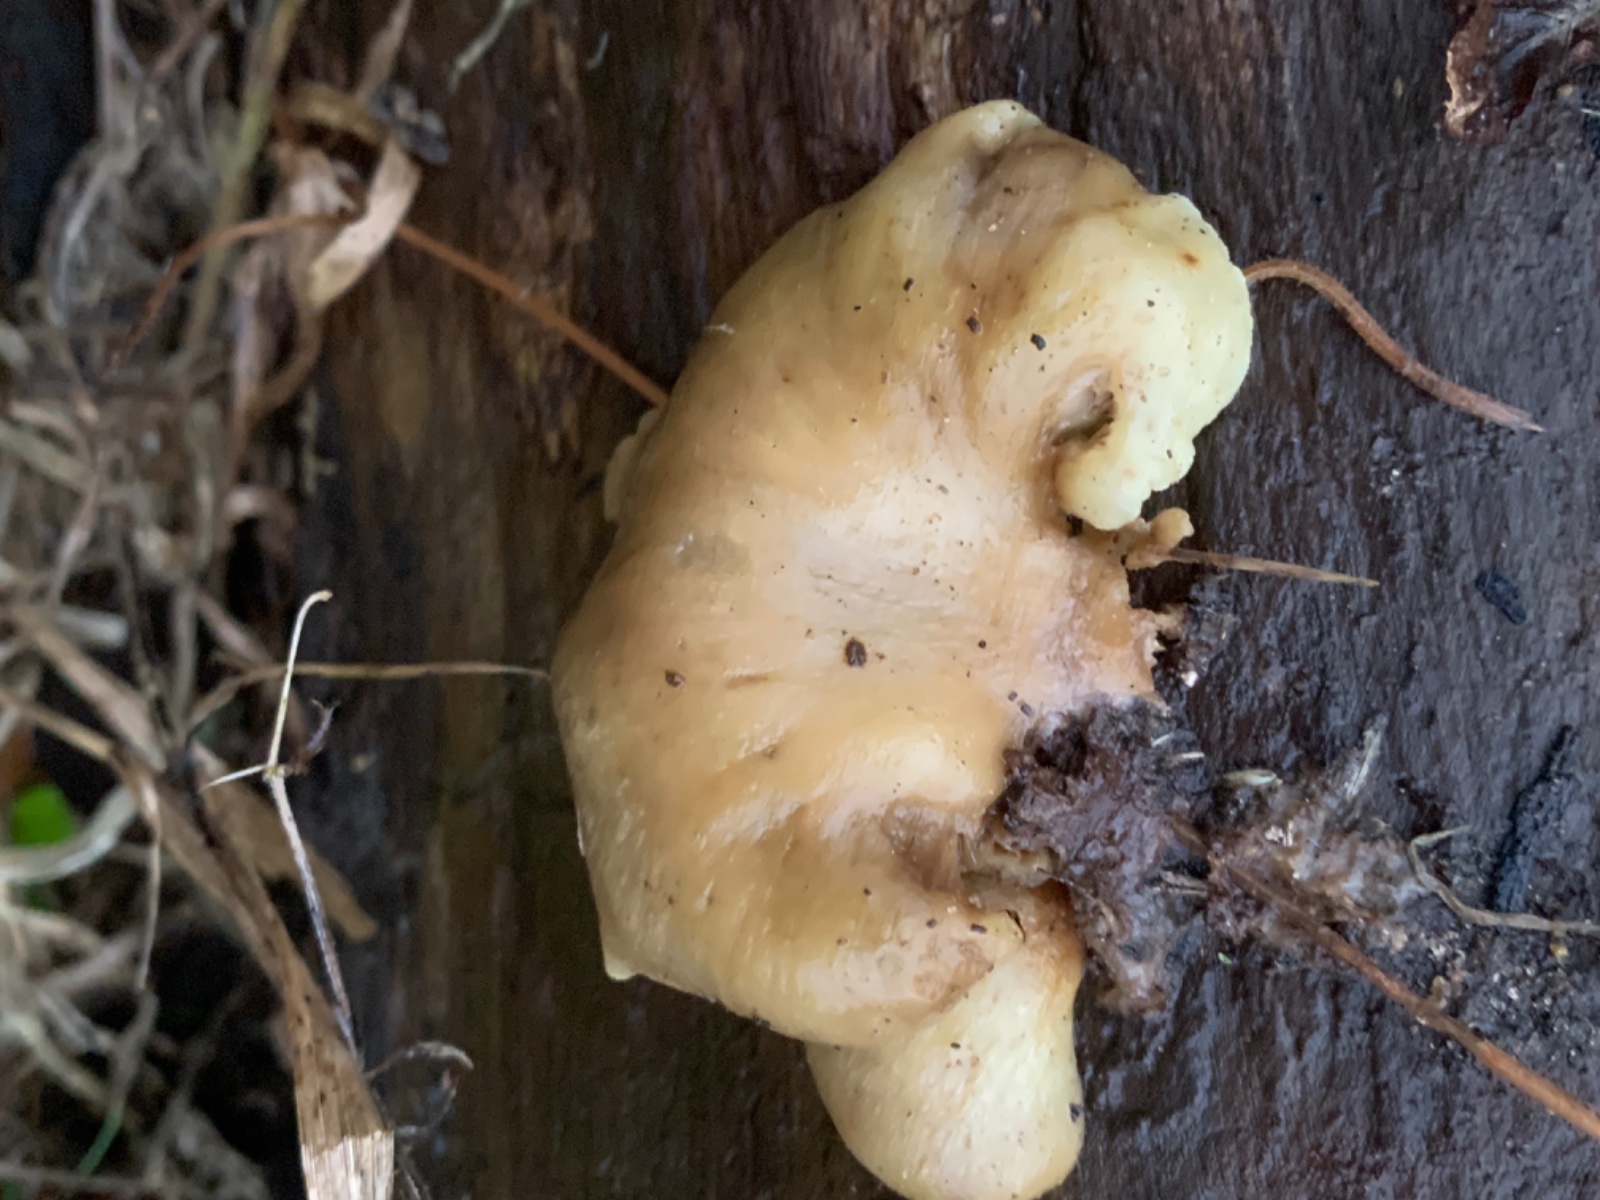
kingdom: Fungi
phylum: Basidiomycota
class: Agaricomycetes
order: Agaricales
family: Crepidotaceae
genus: Crepidotus
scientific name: Crepidotus mollis
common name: blød muslingesvamp
